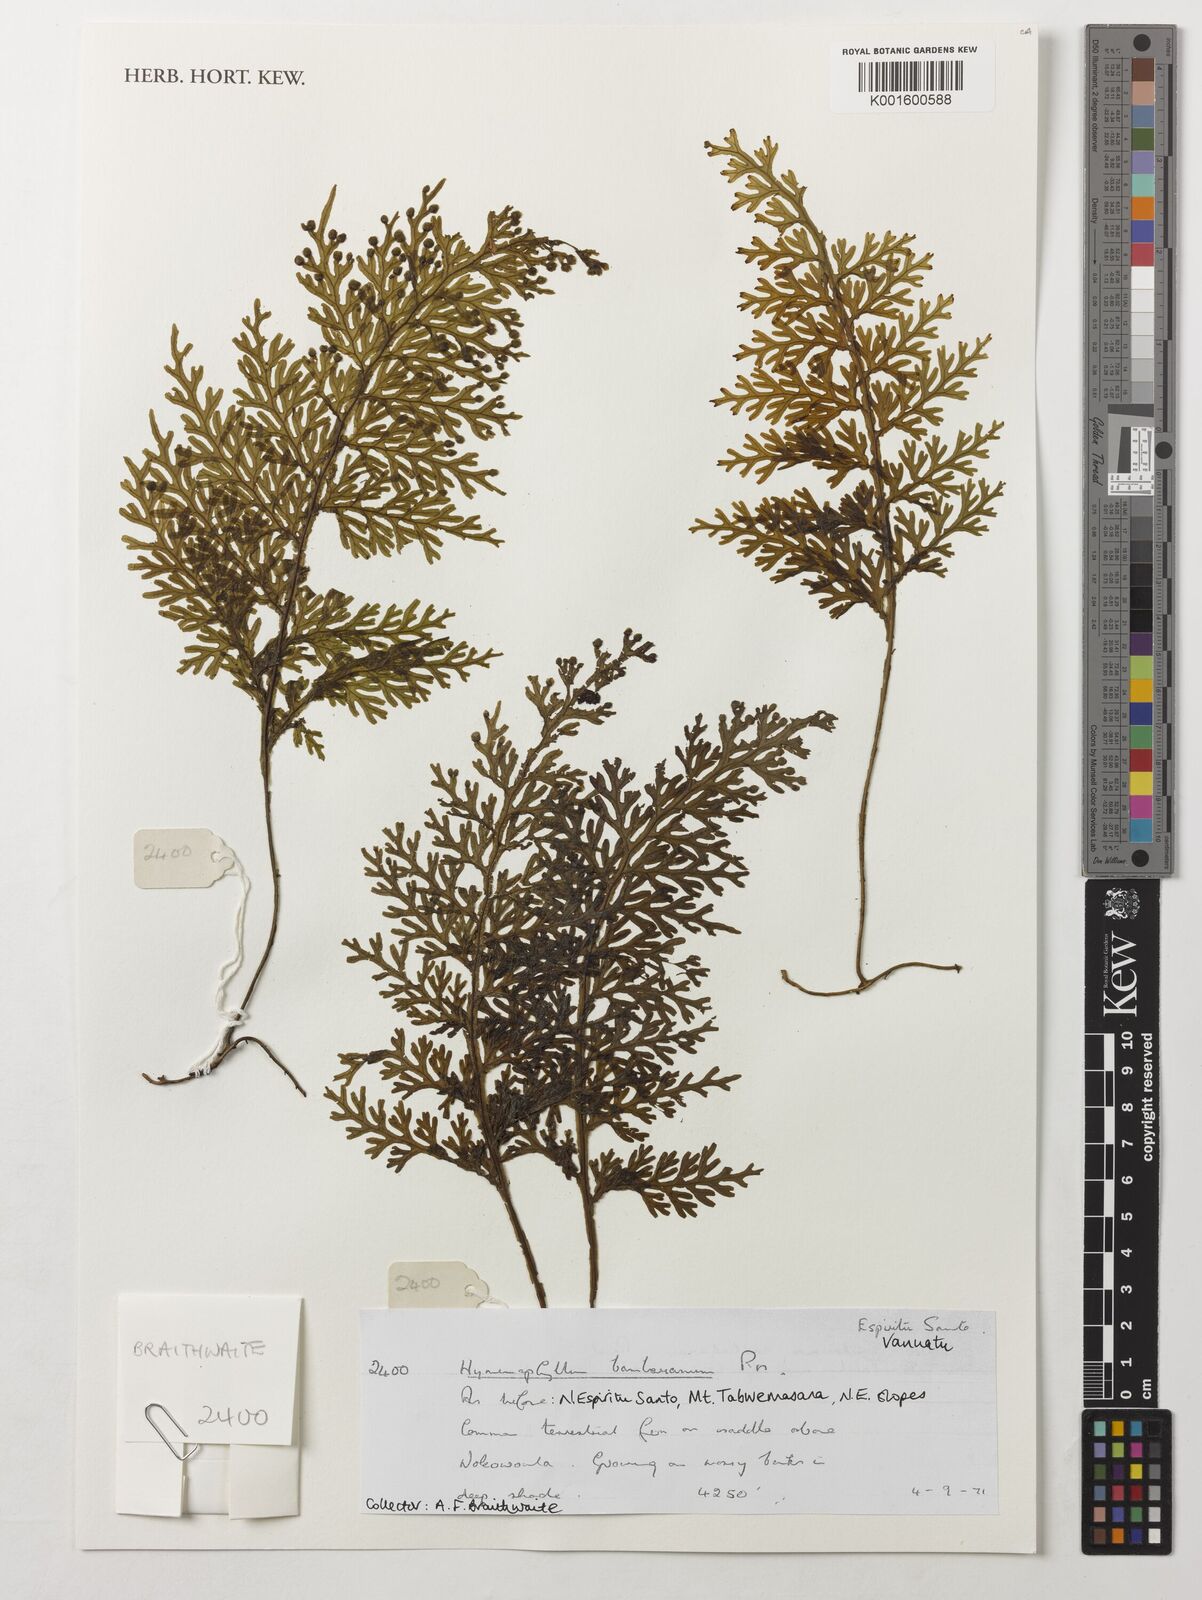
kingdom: Plantae
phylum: Tracheophyta
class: Polypodiopsida
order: Hymenophyllales
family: Hymenophyllaceae
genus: Hymenophyllum
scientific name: Hymenophyllum junghuhnii
